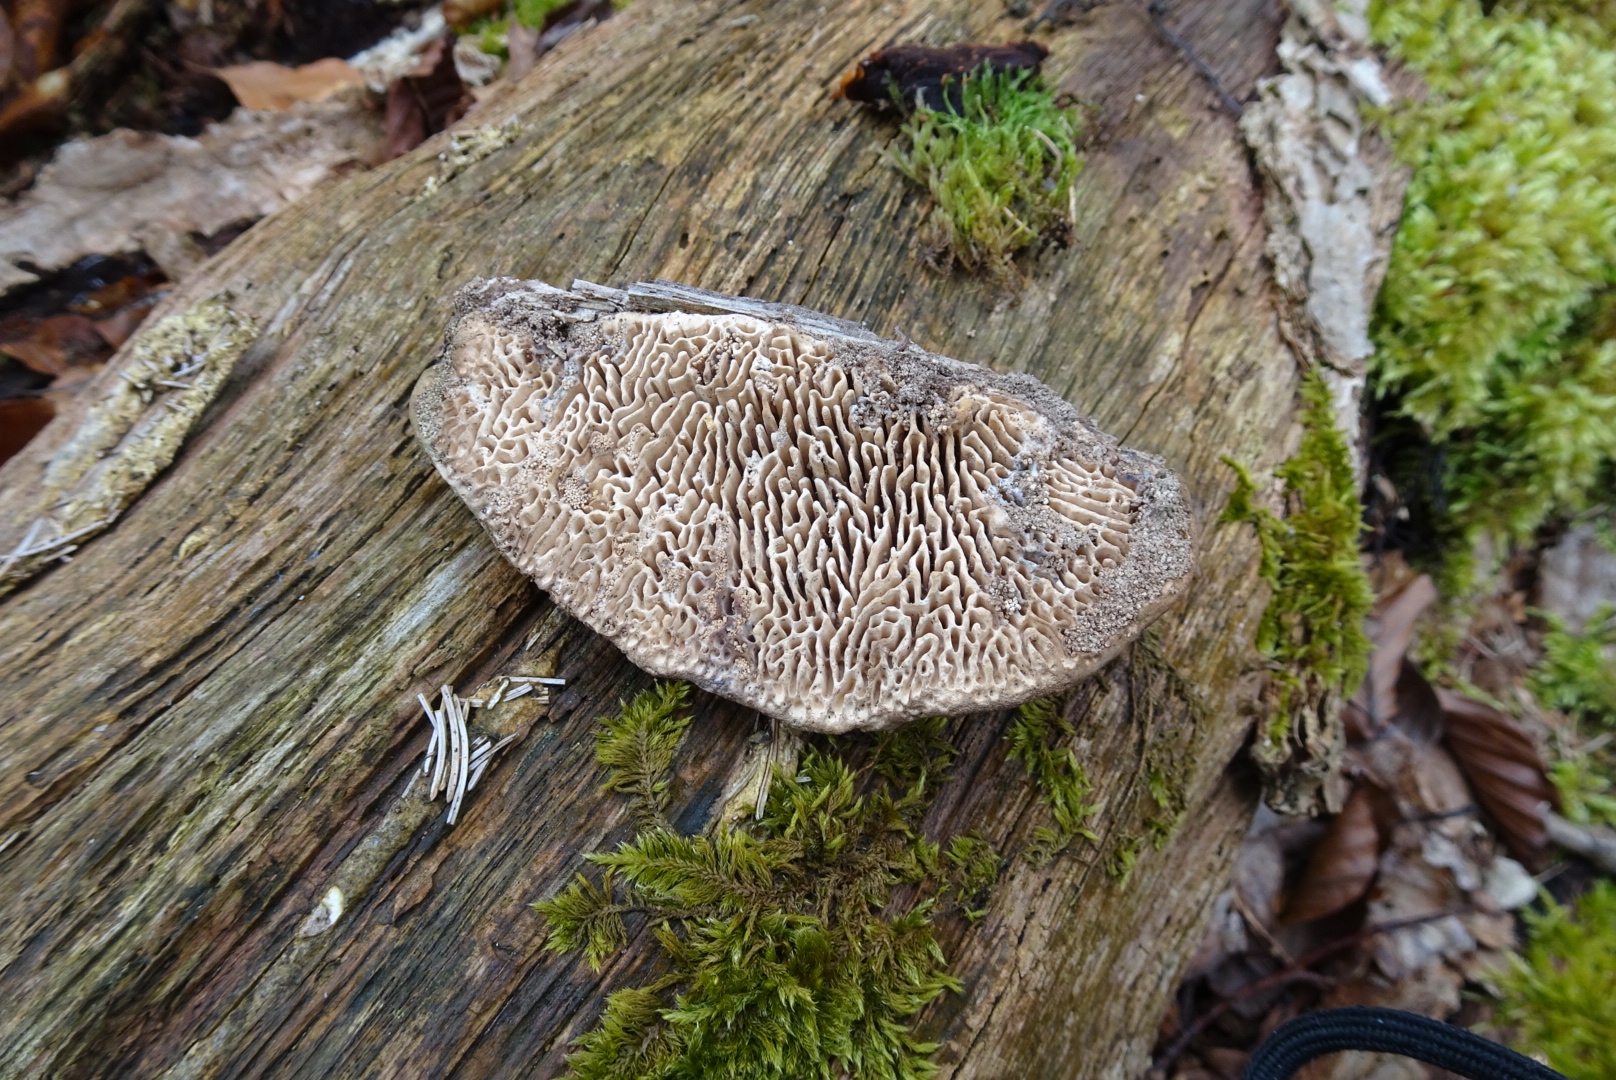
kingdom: Fungi
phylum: Basidiomycota
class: Agaricomycetes
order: Polyporales
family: Fomitopsidaceae
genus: Daedalea
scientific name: Daedalea quercina
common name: ege-labyrintsvamp
